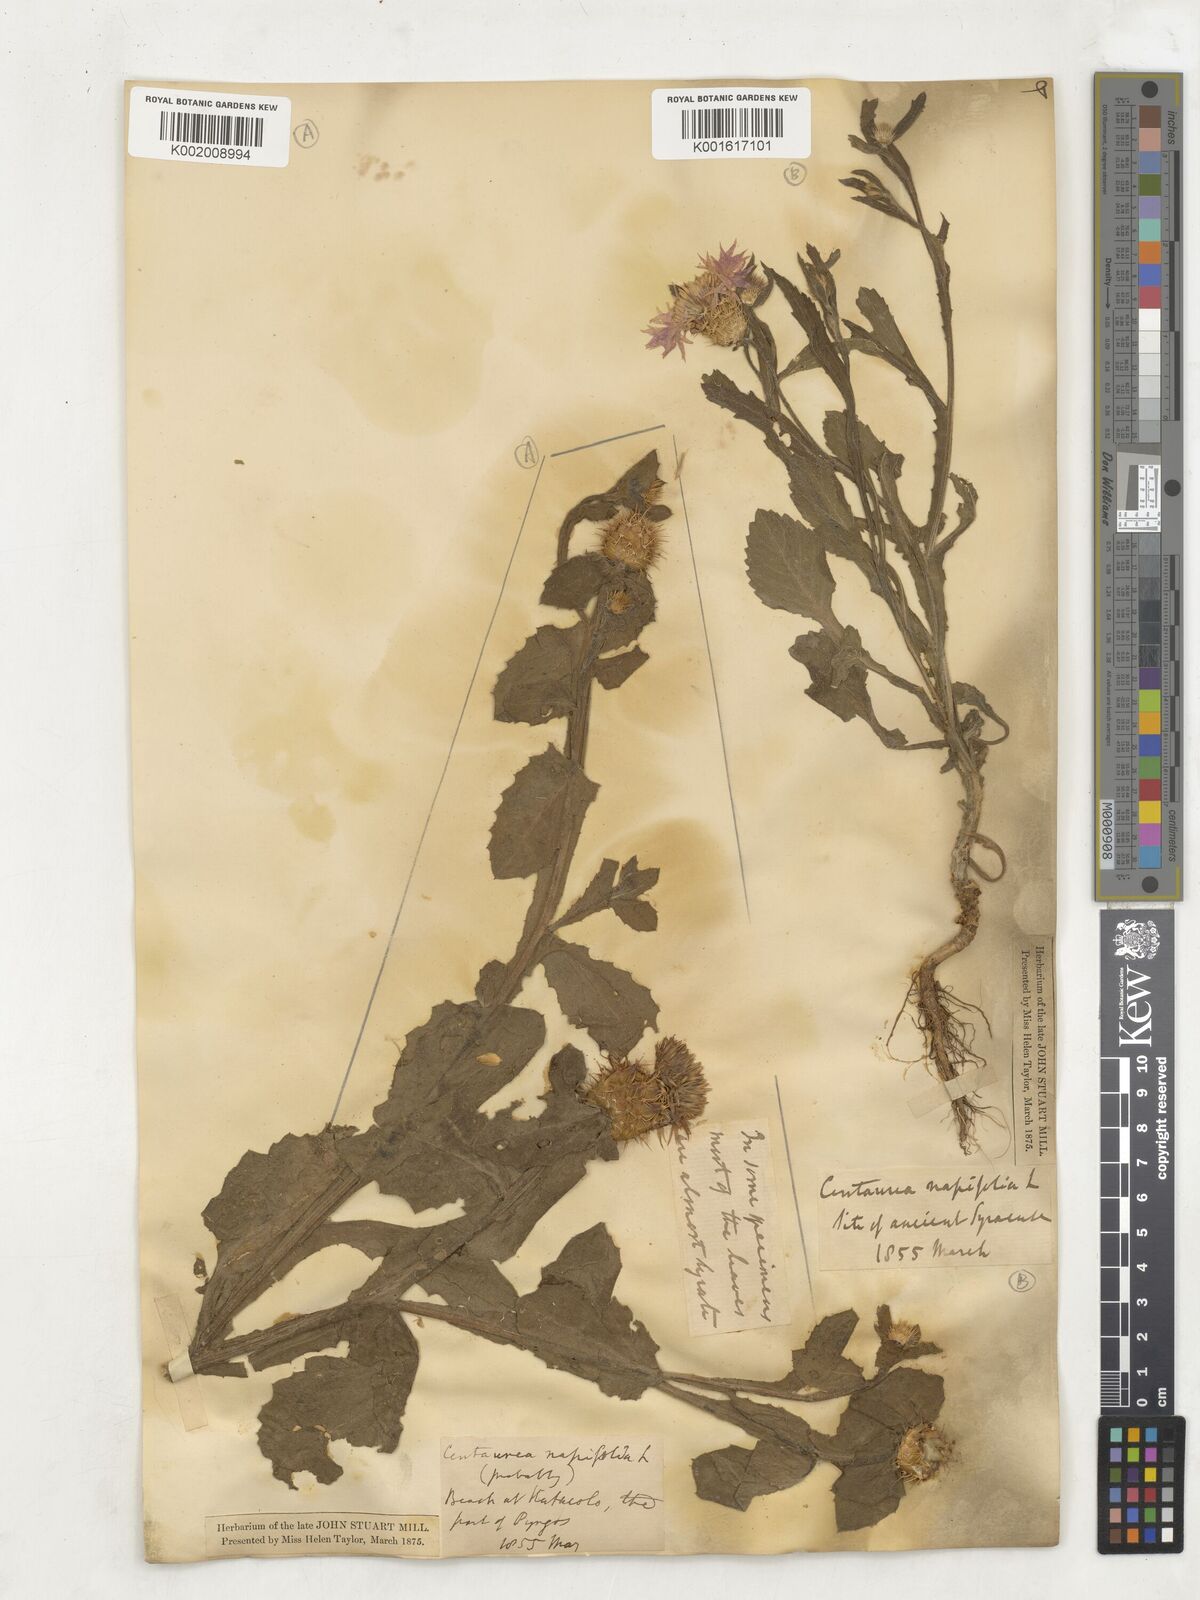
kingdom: Plantae
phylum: Tracheophyta
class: Magnoliopsida
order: Asterales
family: Asteraceae
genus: Centaurea
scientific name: Centaurea napifolia
